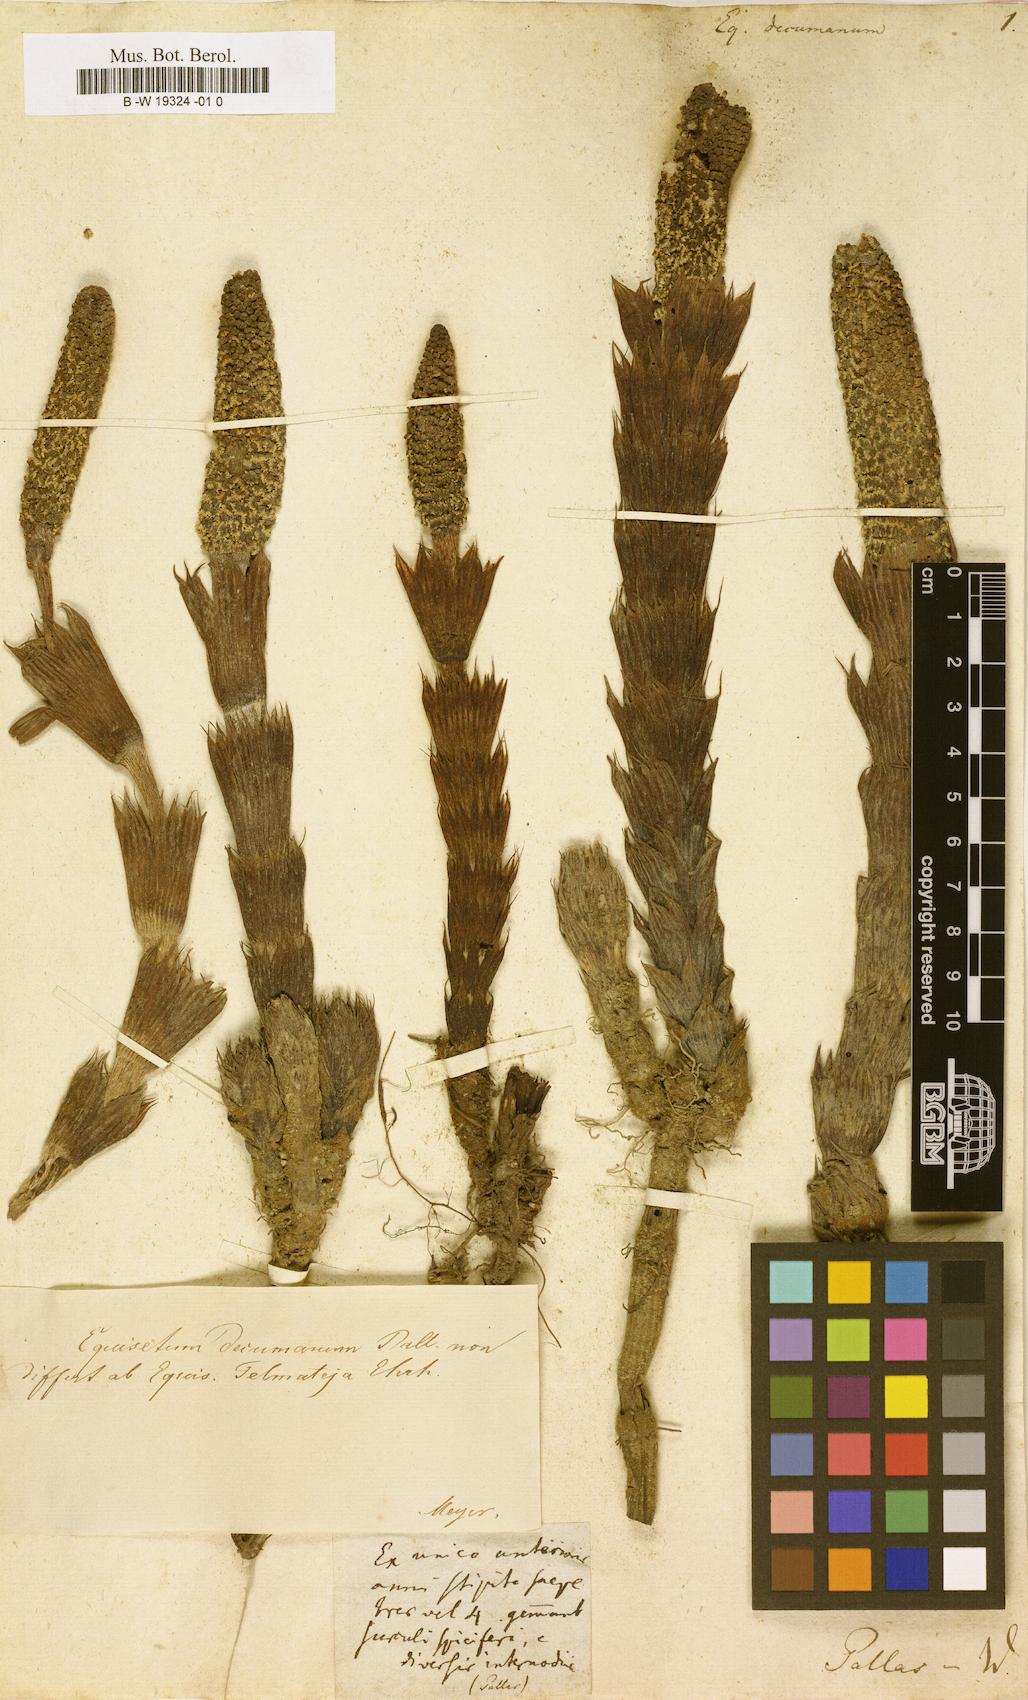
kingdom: Plantae
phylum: Tracheophyta
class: Polypodiopsida
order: Equisetales
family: Equisetaceae
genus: Equisetum
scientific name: Equisetum
